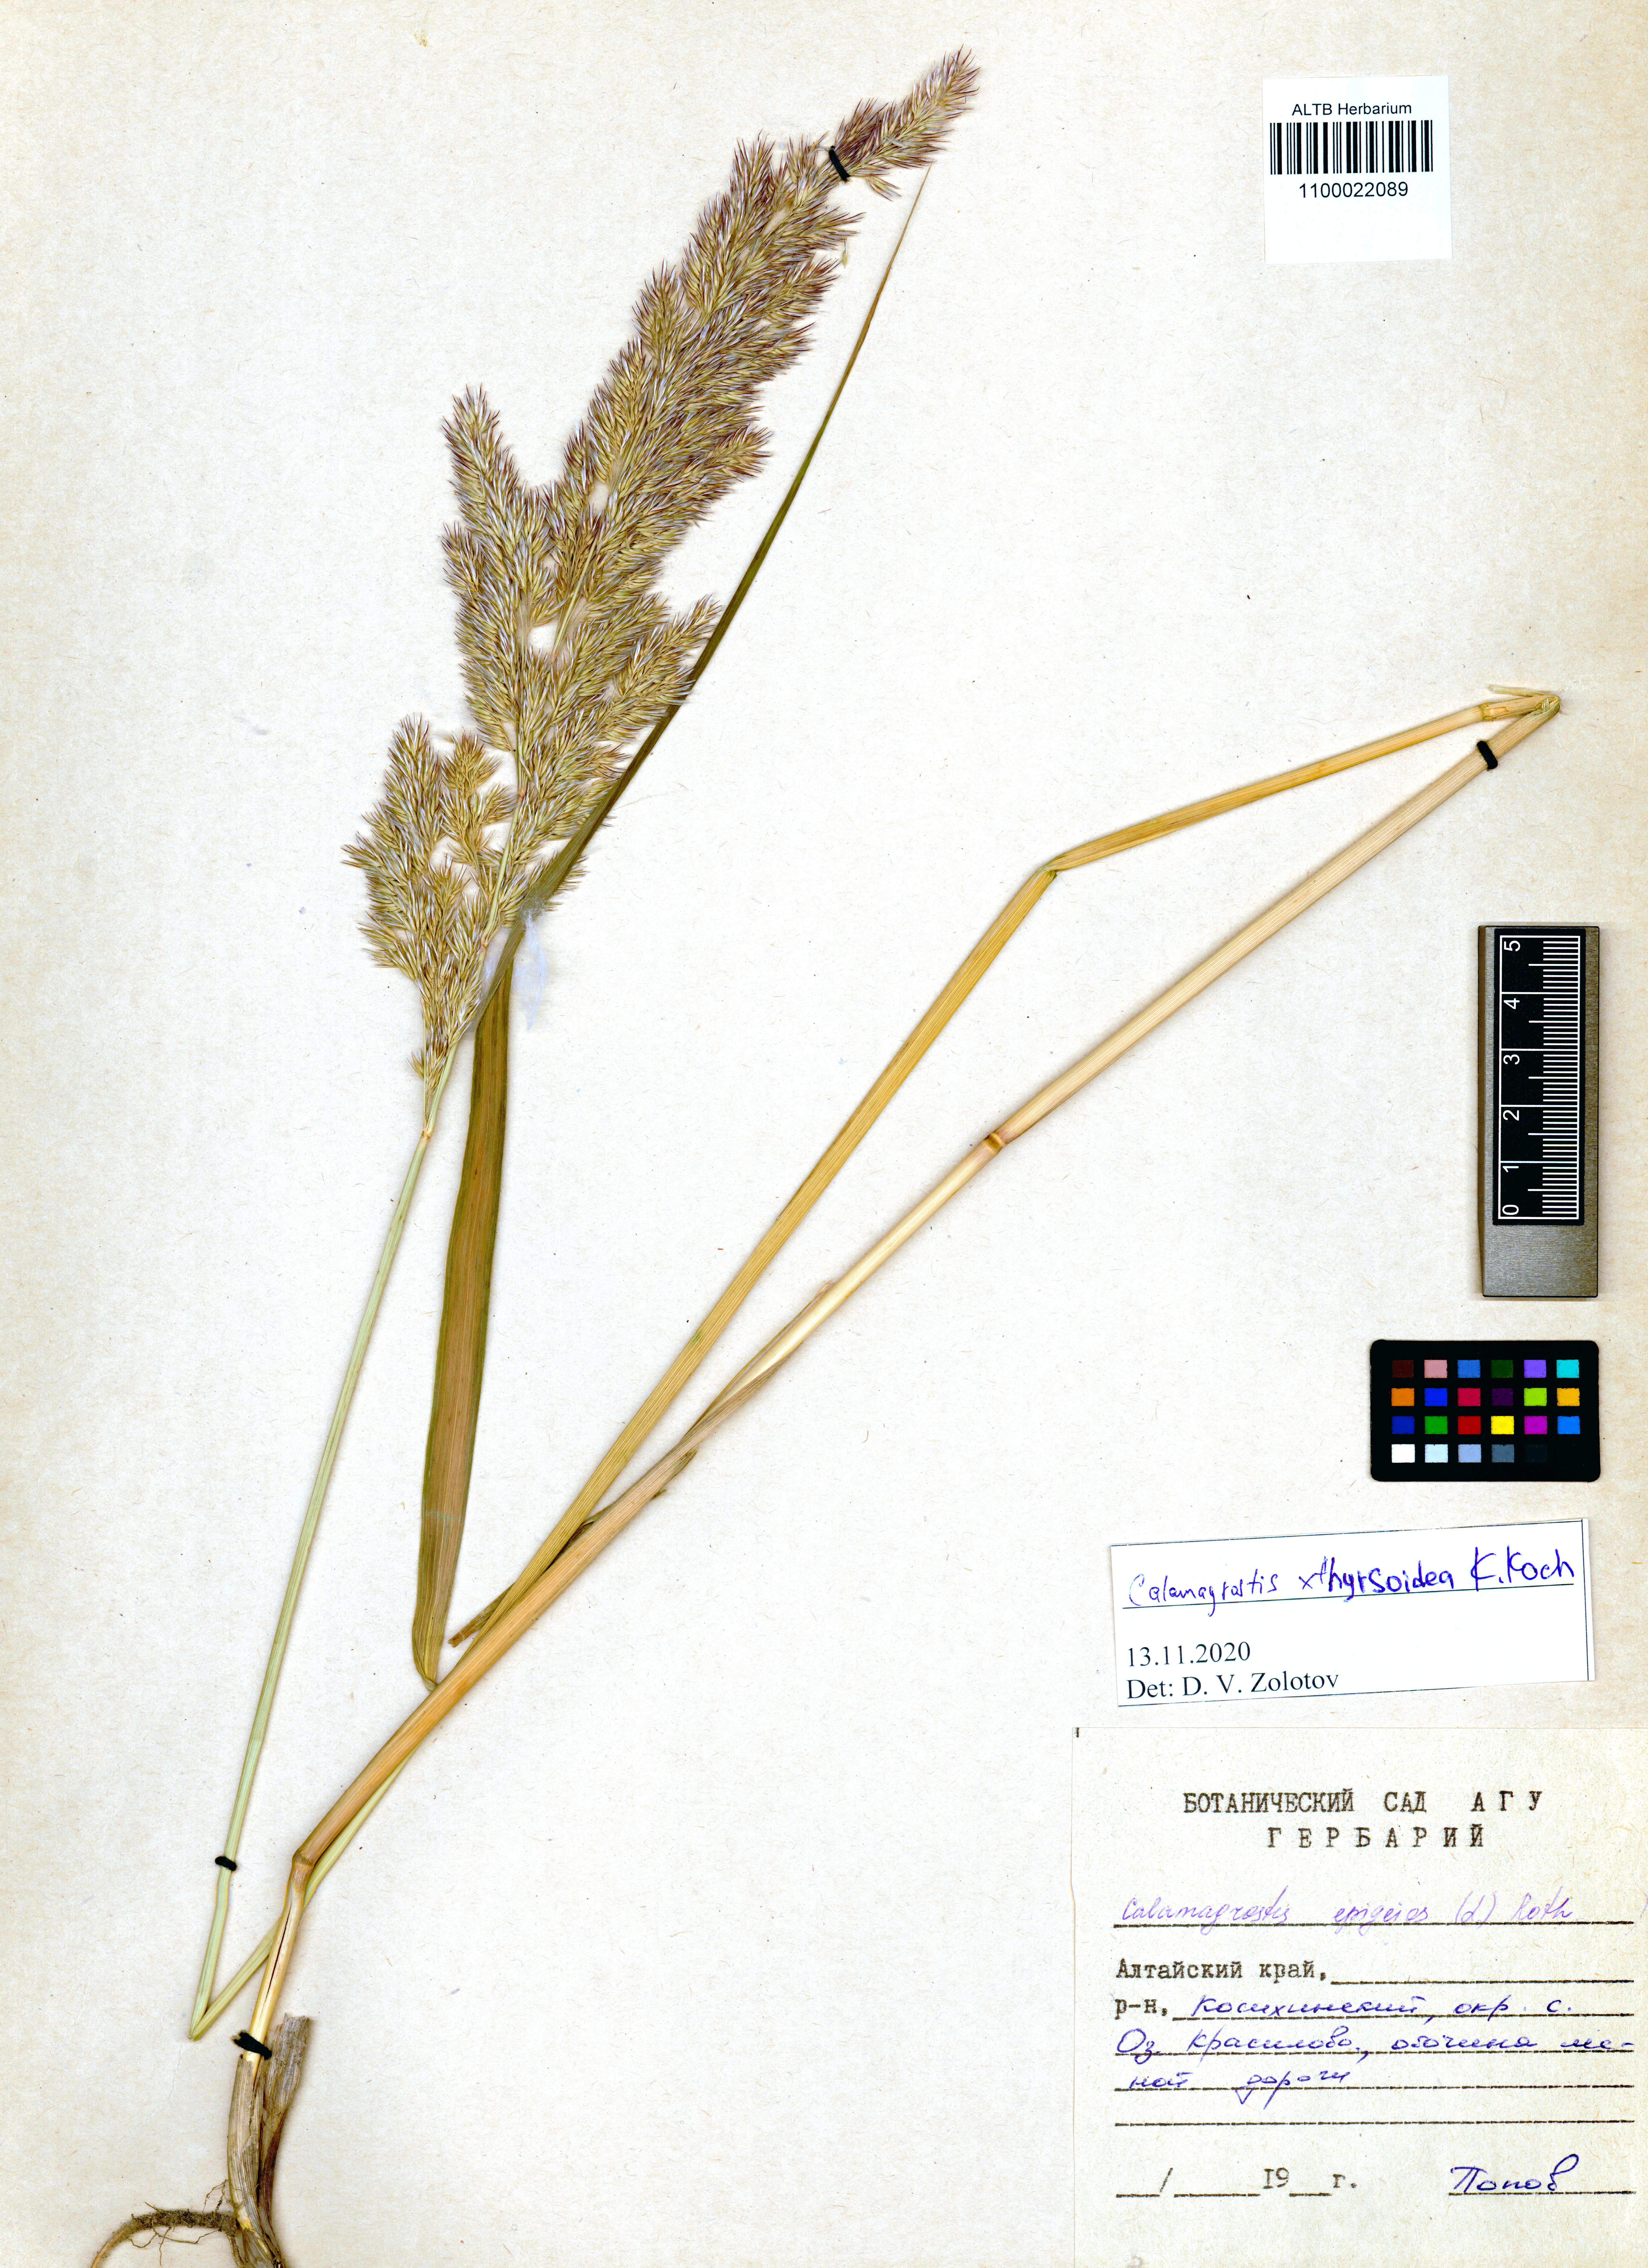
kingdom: Plantae
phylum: Tracheophyta
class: Liliopsida
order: Poales
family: Poaceae
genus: Calamagrostis
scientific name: Calamagrostis epigejos x pseudophragmites
